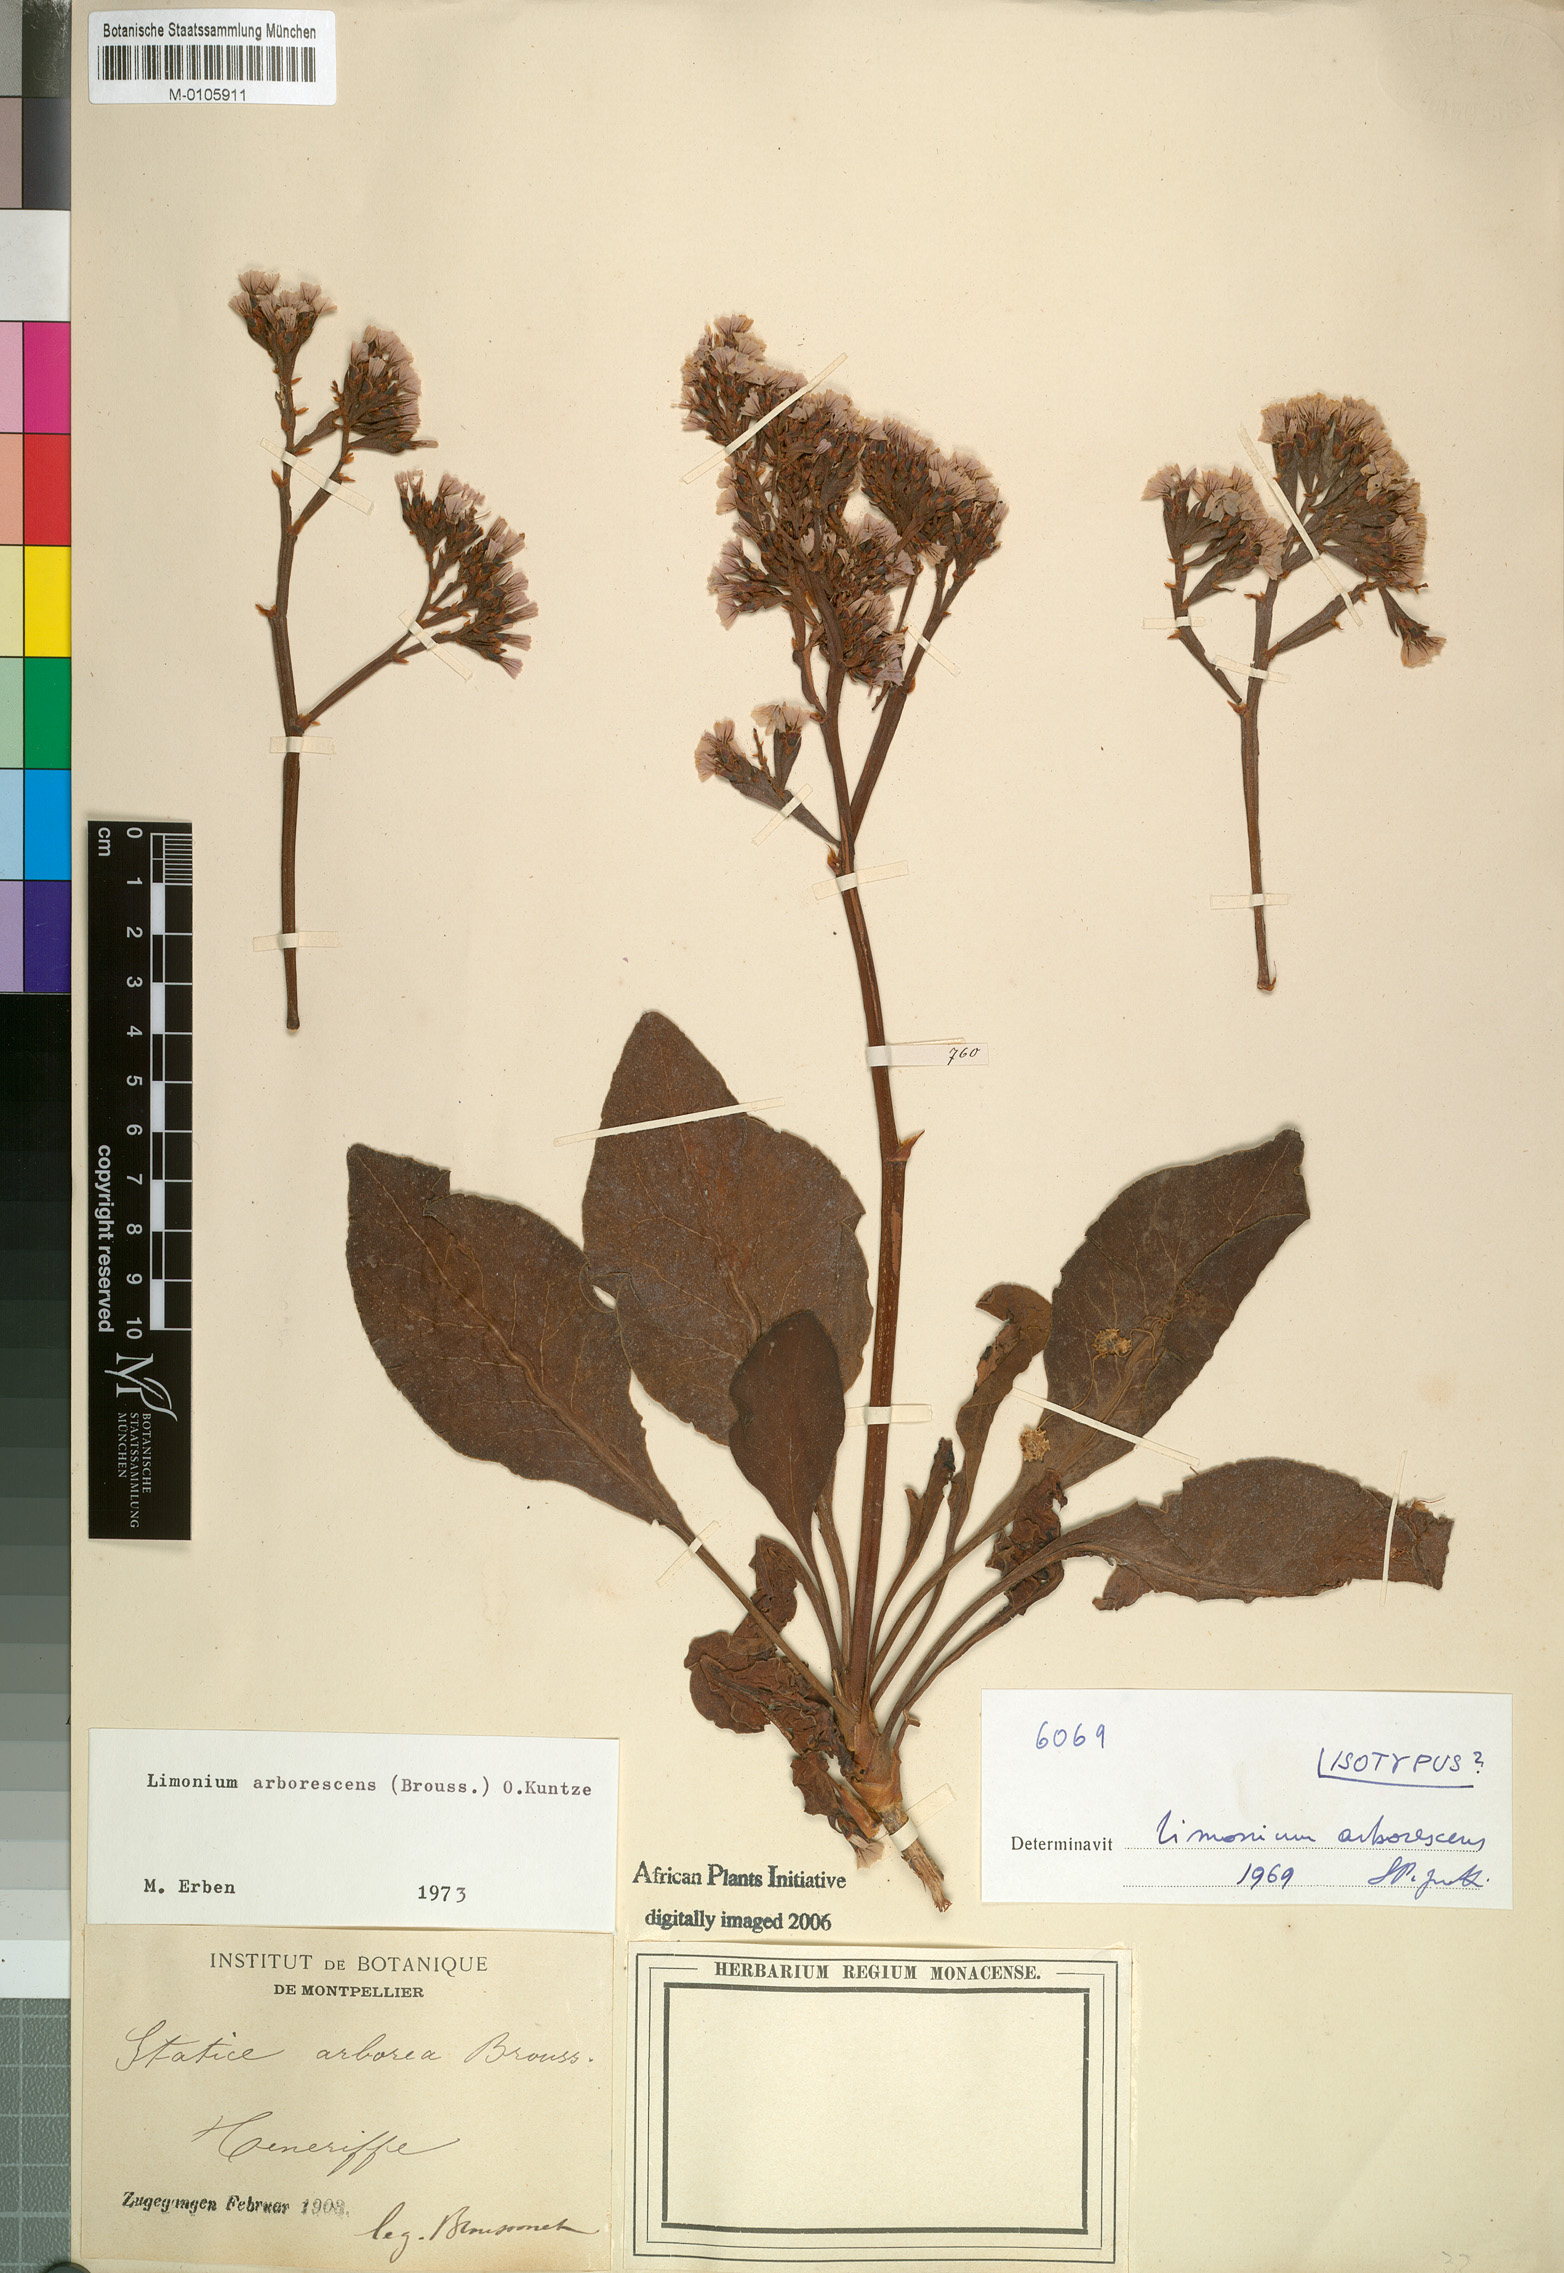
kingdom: Plantae
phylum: Tracheophyta
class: Magnoliopsida
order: Caryophyllales
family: Plumbaginaceae
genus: Limonium
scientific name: Limonium arboreum
